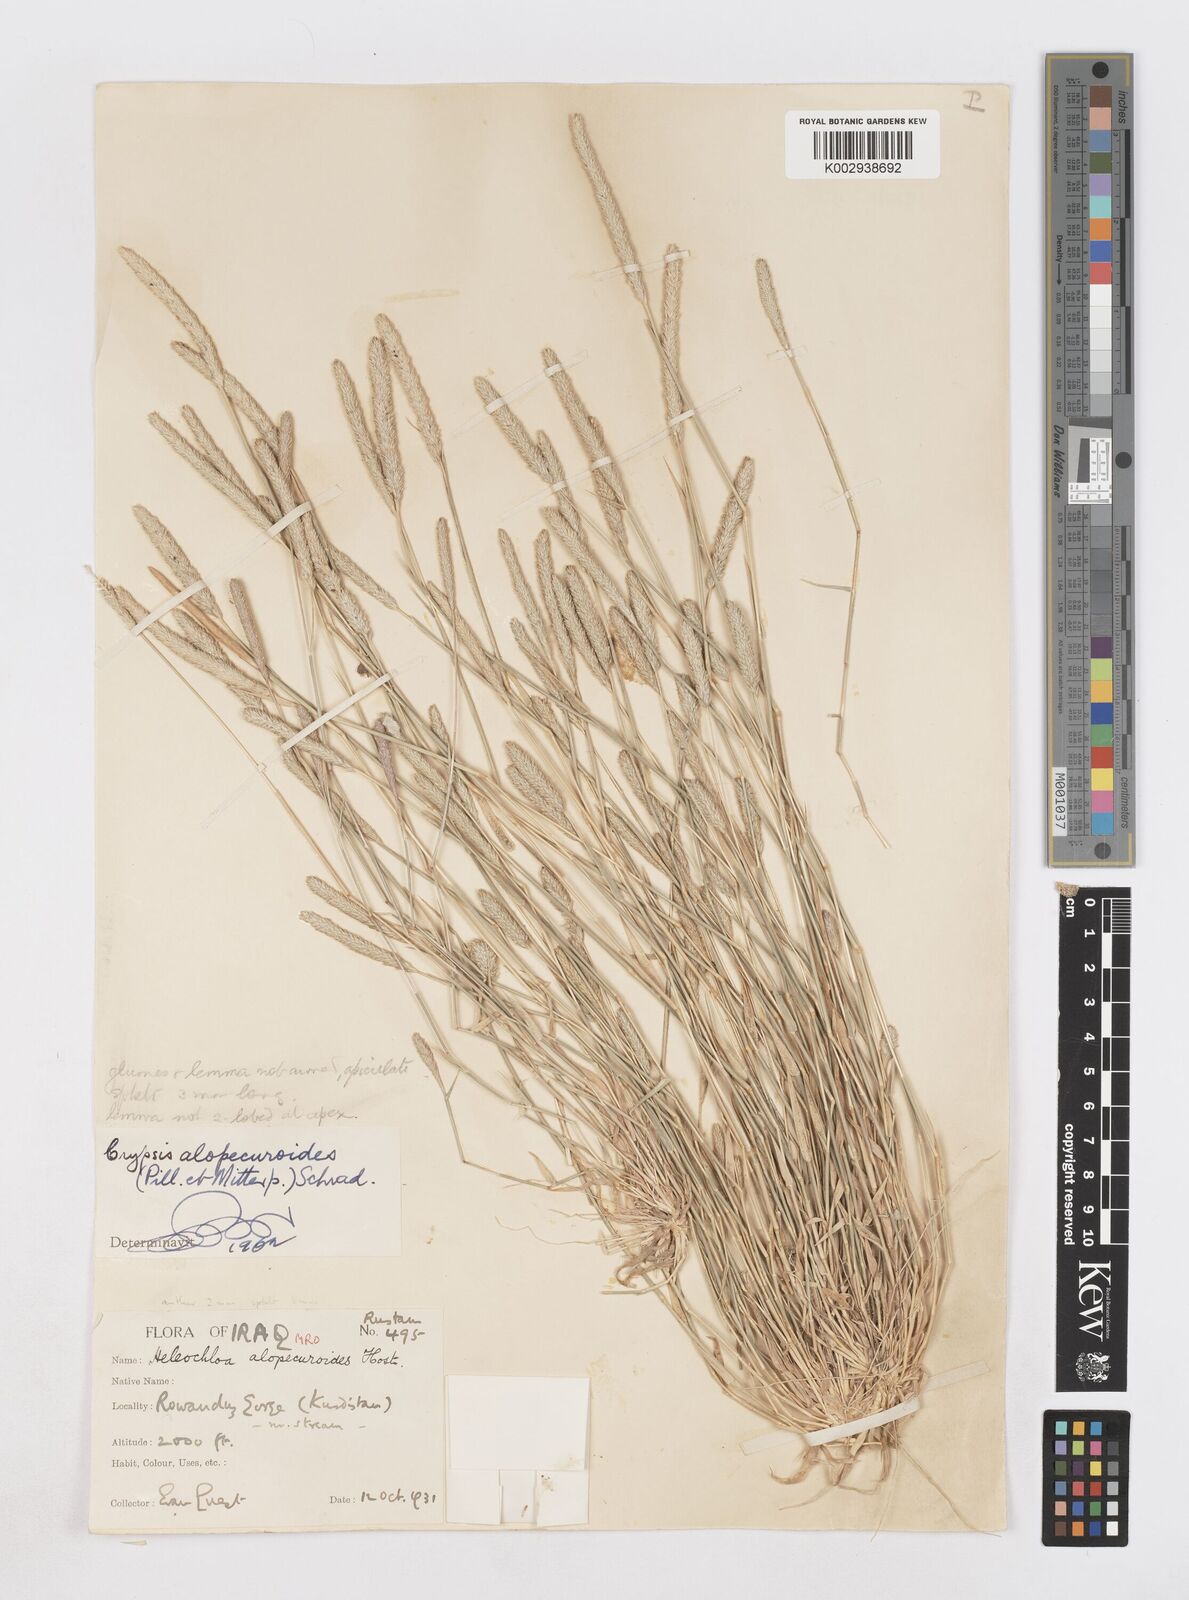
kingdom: Plantae
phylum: Tracheophyta
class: Liliopsida
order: Poales
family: Poaceae
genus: Sporobolus
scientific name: Sporobolus alopecuroides
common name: Foxtail pricklegrass
